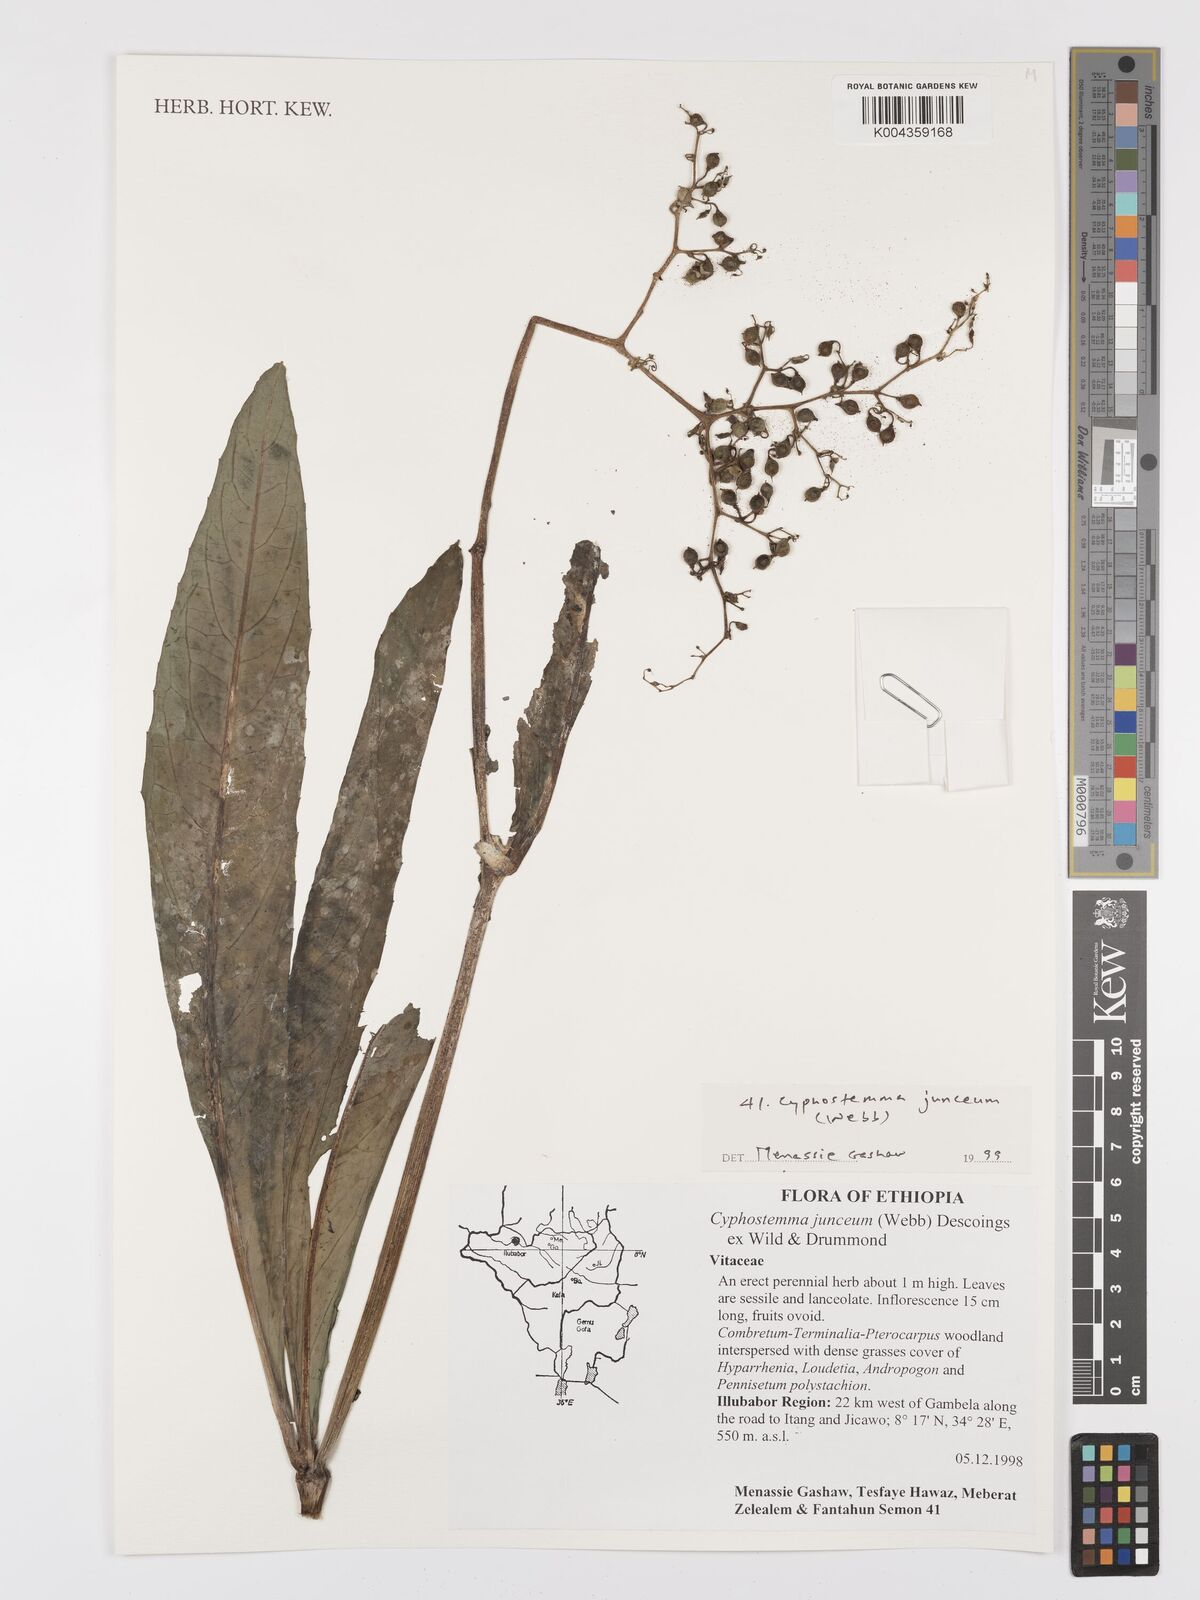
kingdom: Plantae
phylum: Tracheophyta
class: Magnoliopsida
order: Vitales
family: Vitaceae
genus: Cyphostemma
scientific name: Cyphostemma junceum
